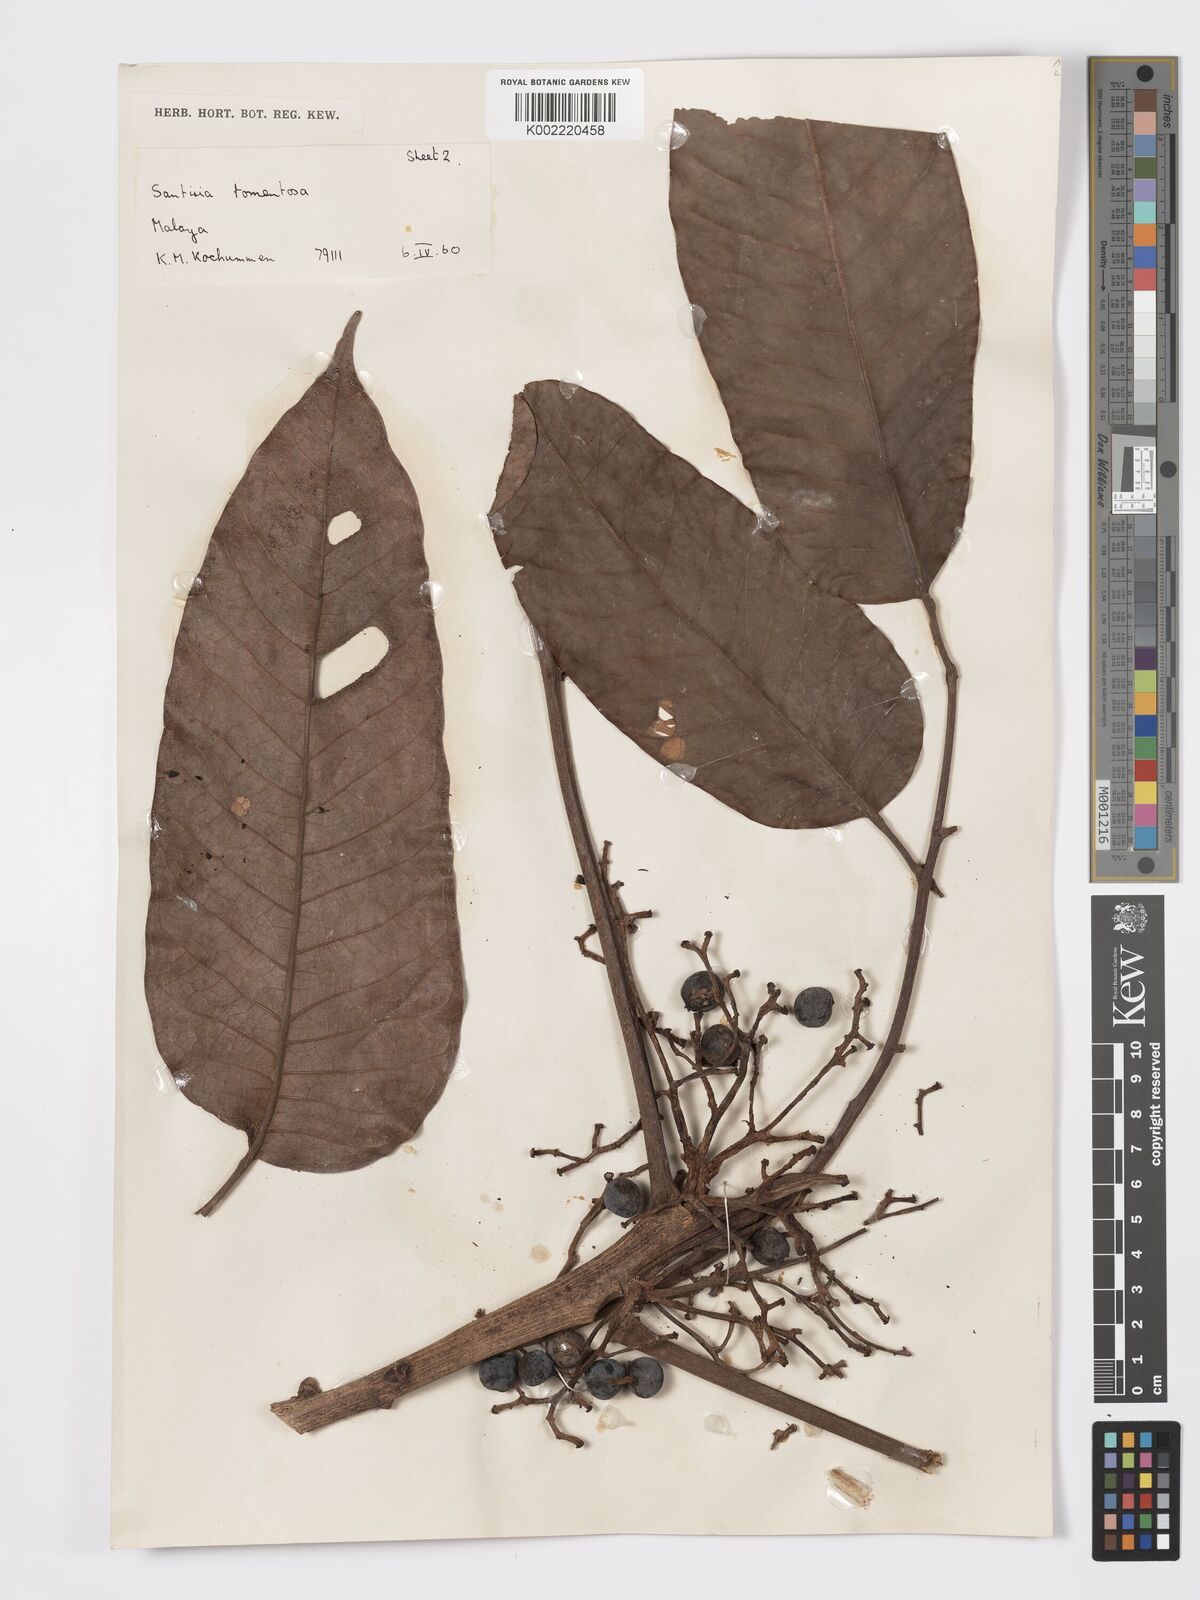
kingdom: Plantae
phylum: Tracheophyta
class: Magnoliopsida
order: Sapindales
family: Burseraceae
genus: Santiria
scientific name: Santiria tomentosa
